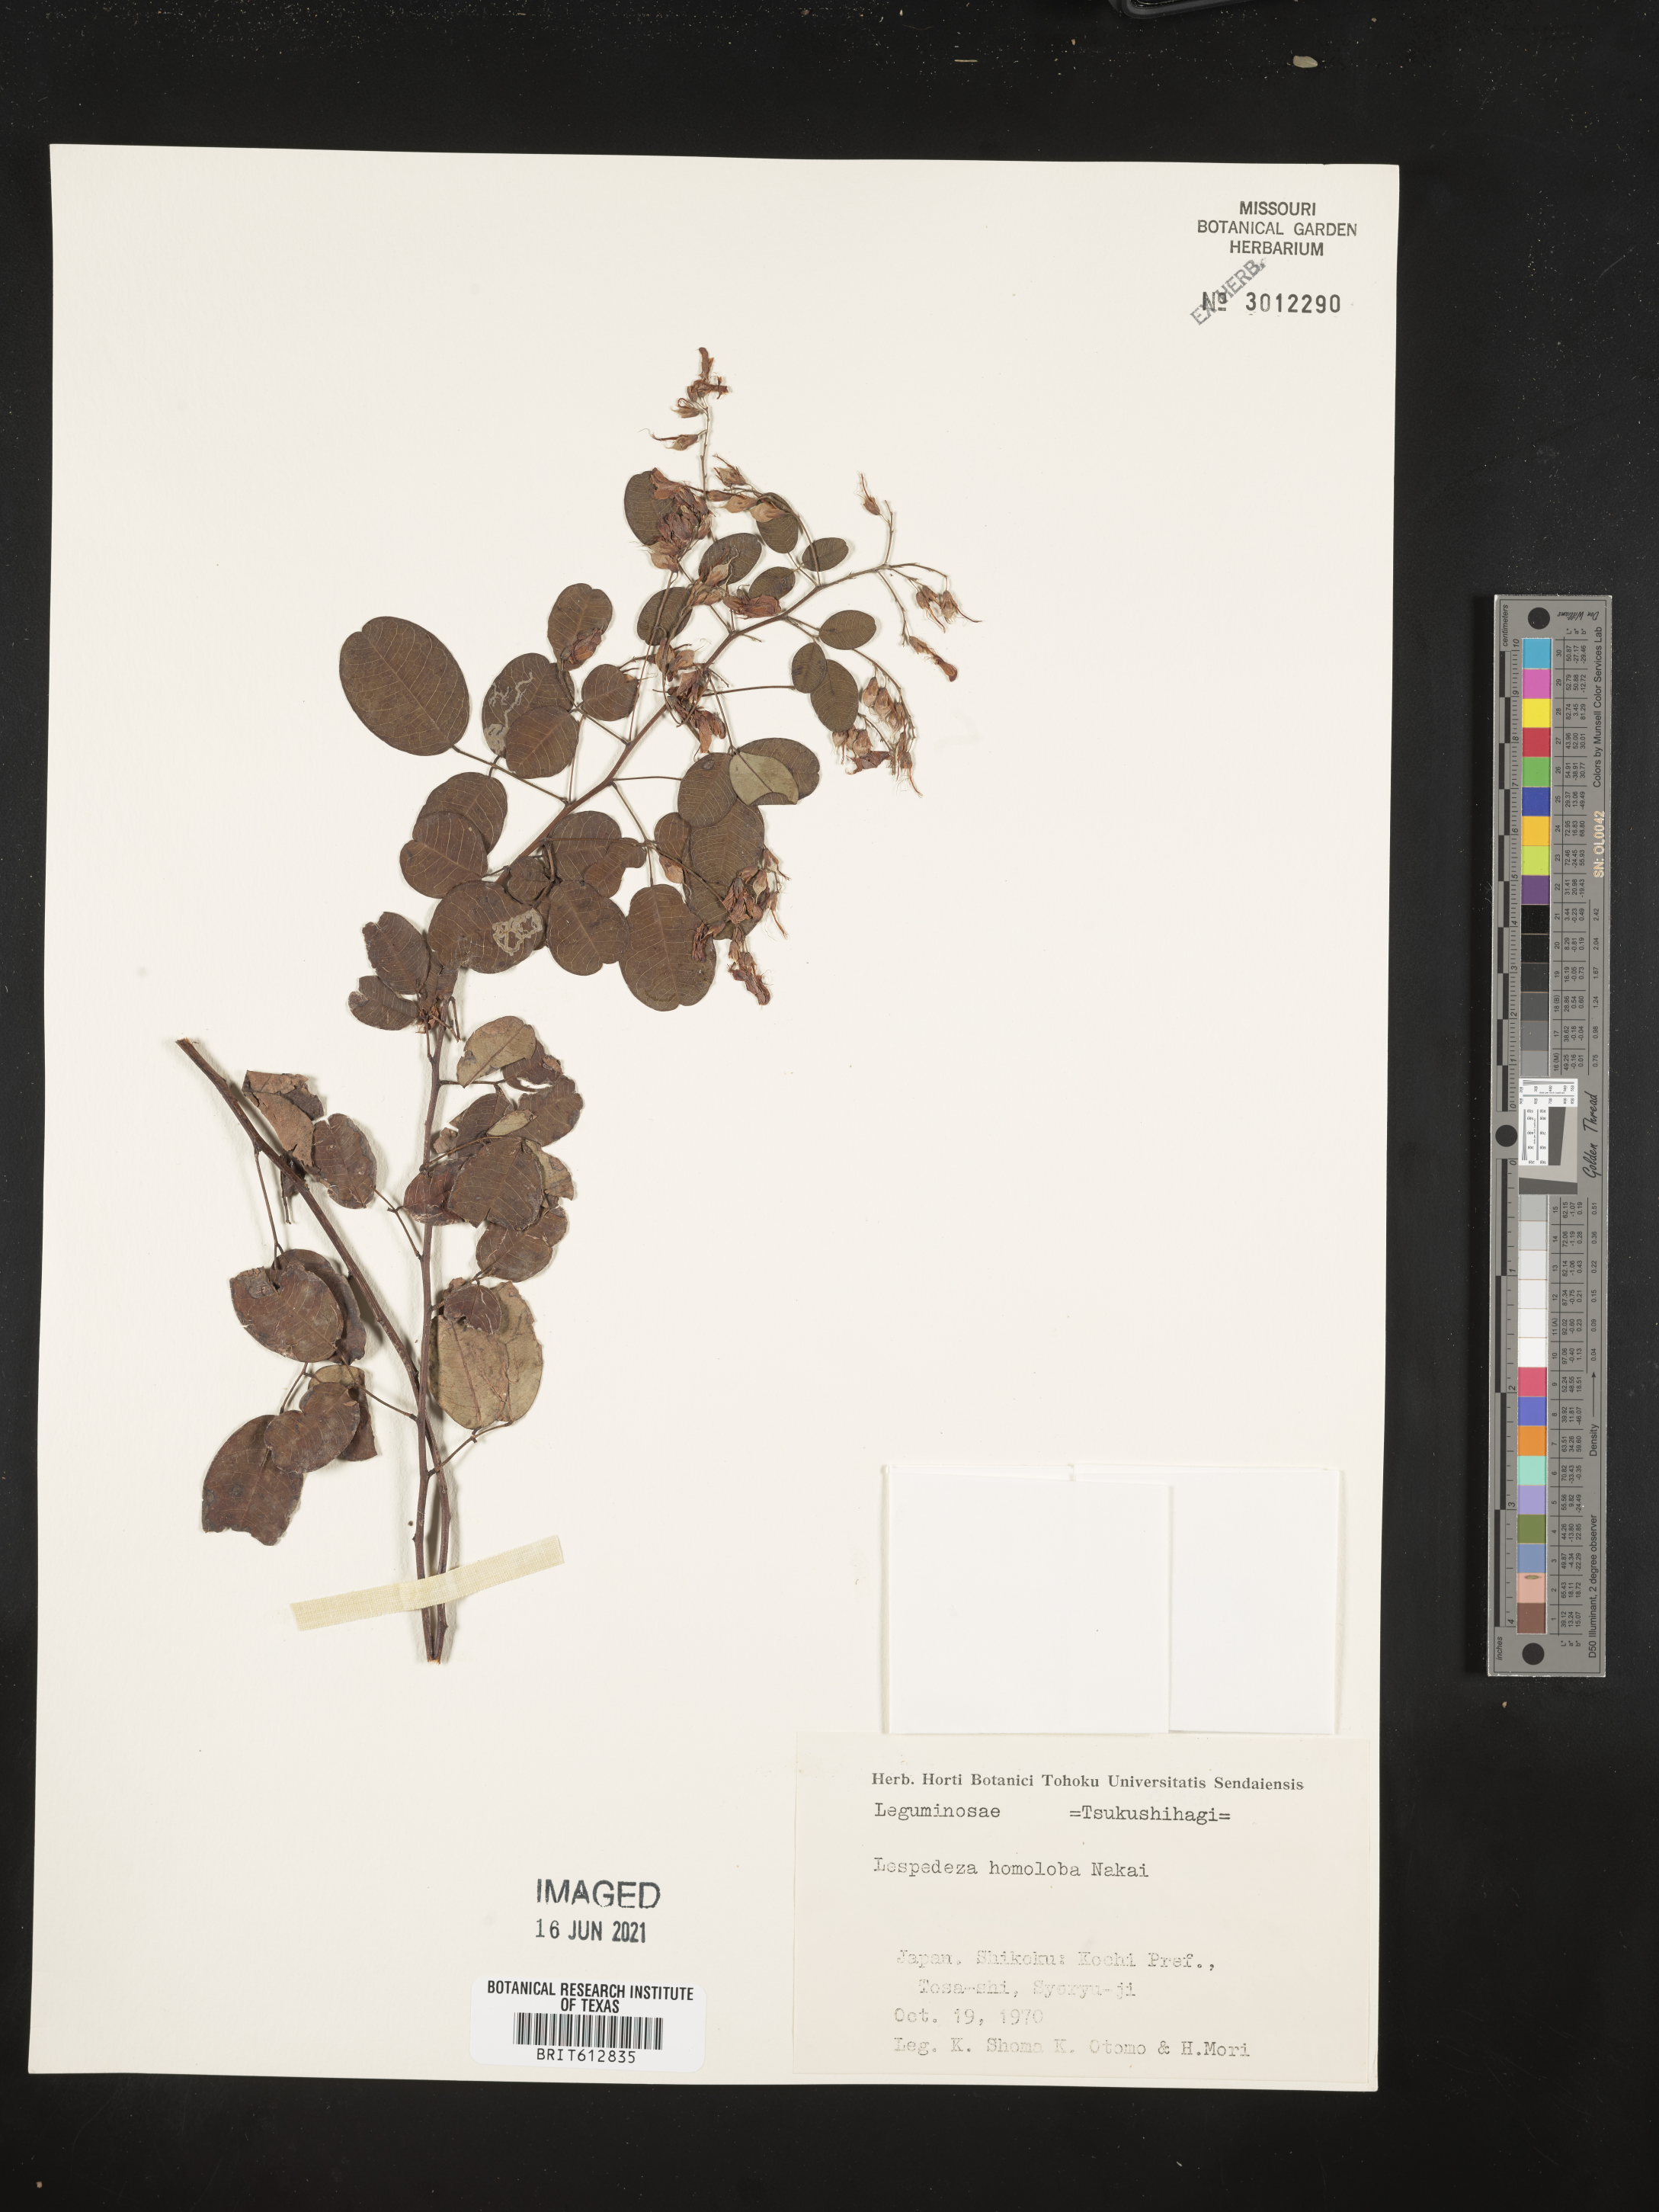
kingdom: Plantae
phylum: Tracheophyta
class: Magnoliopsida
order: Fabales
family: Fabaceae
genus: Lespedeza
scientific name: Lespedeza homoloba
